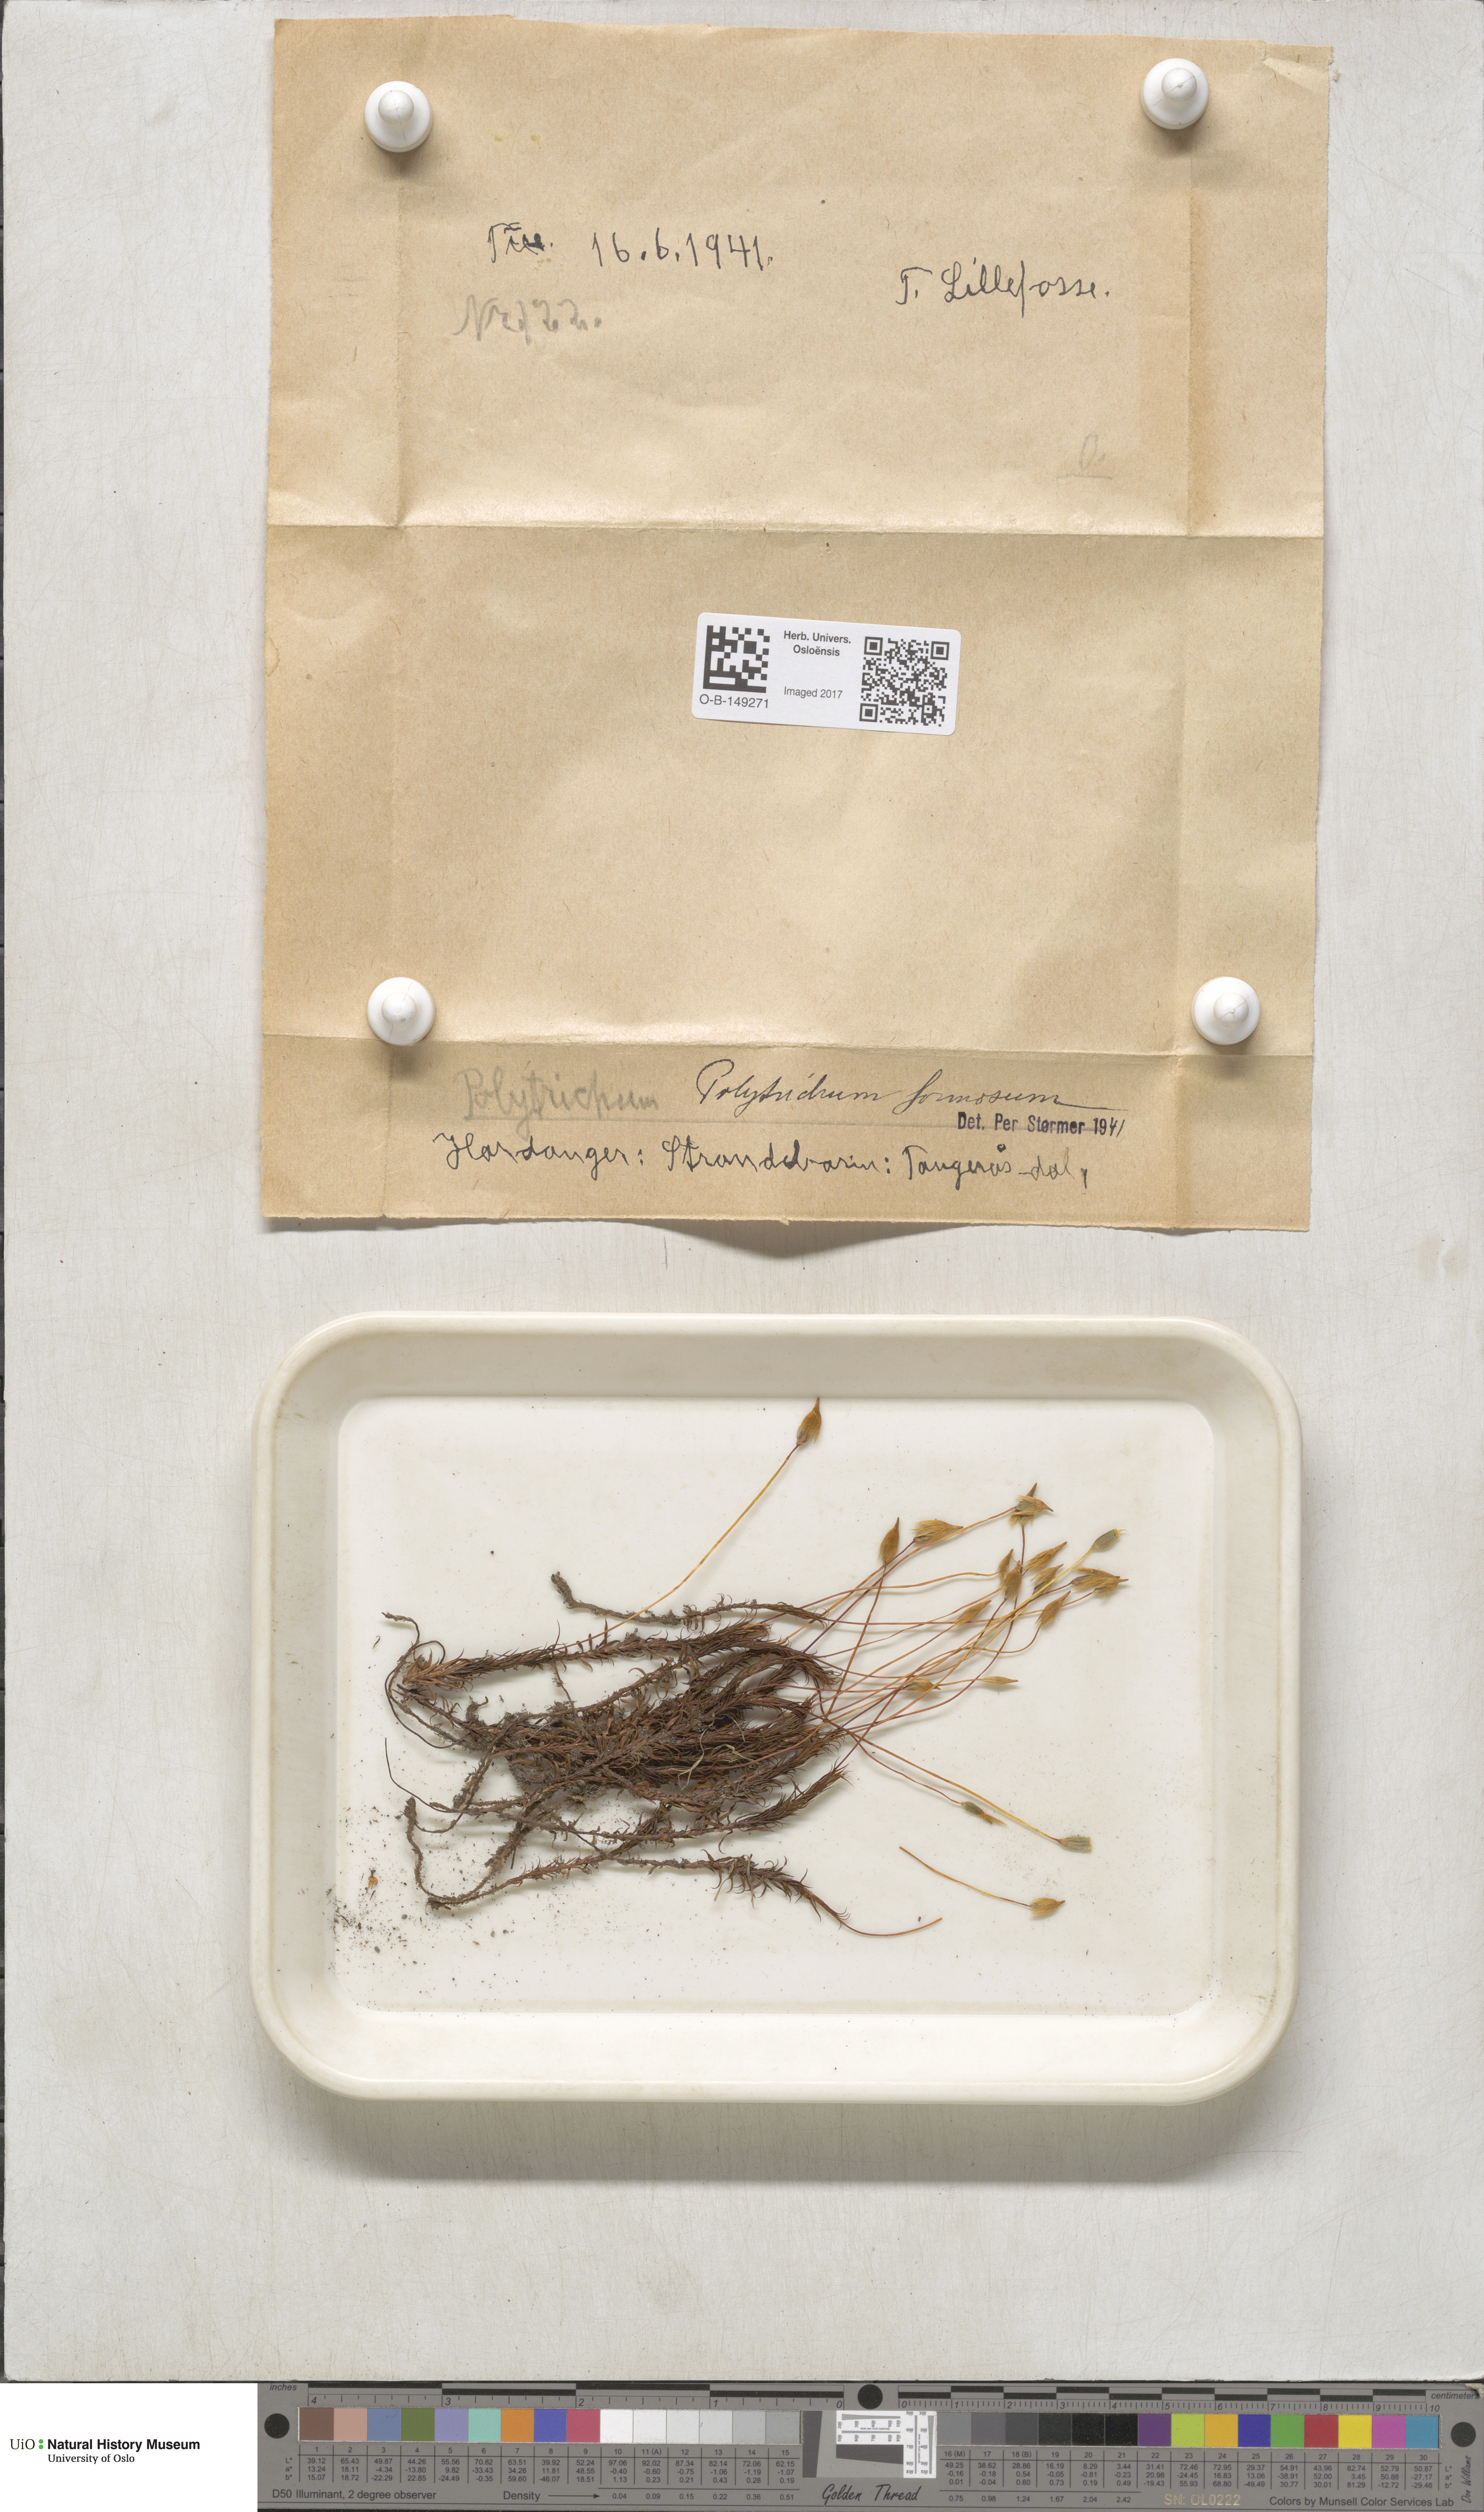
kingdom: Plantae
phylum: Bryophyta
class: Polytrichopsida
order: Polytrichales
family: Polytrichaceae
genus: Polytrichum
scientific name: Polytrichum formosum
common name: Bank haircap moss
